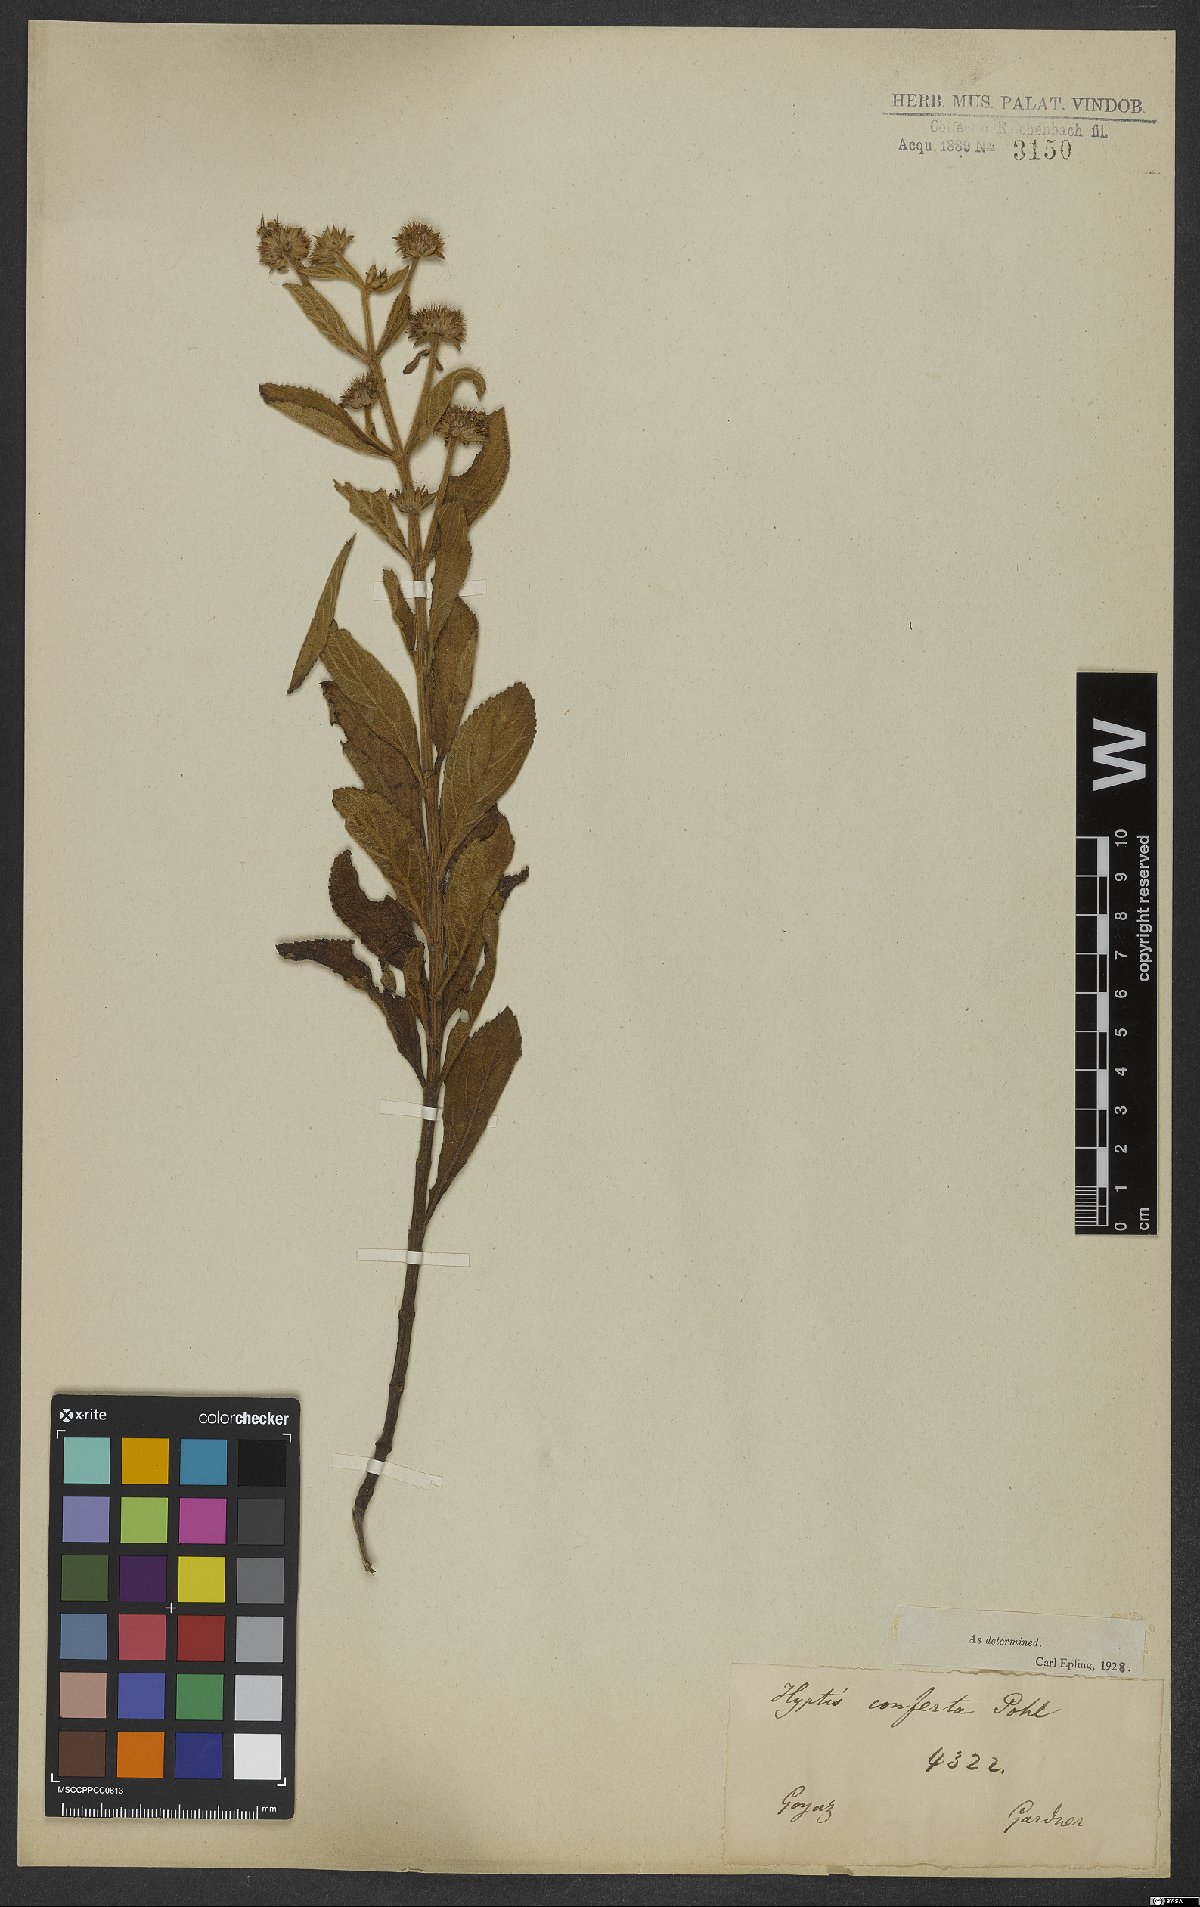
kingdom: Plantae
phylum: Tracheophyta
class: Magnoliopsida
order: Lamiales
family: Lamiaceae
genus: Hyptis
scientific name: Hyptis conferta
